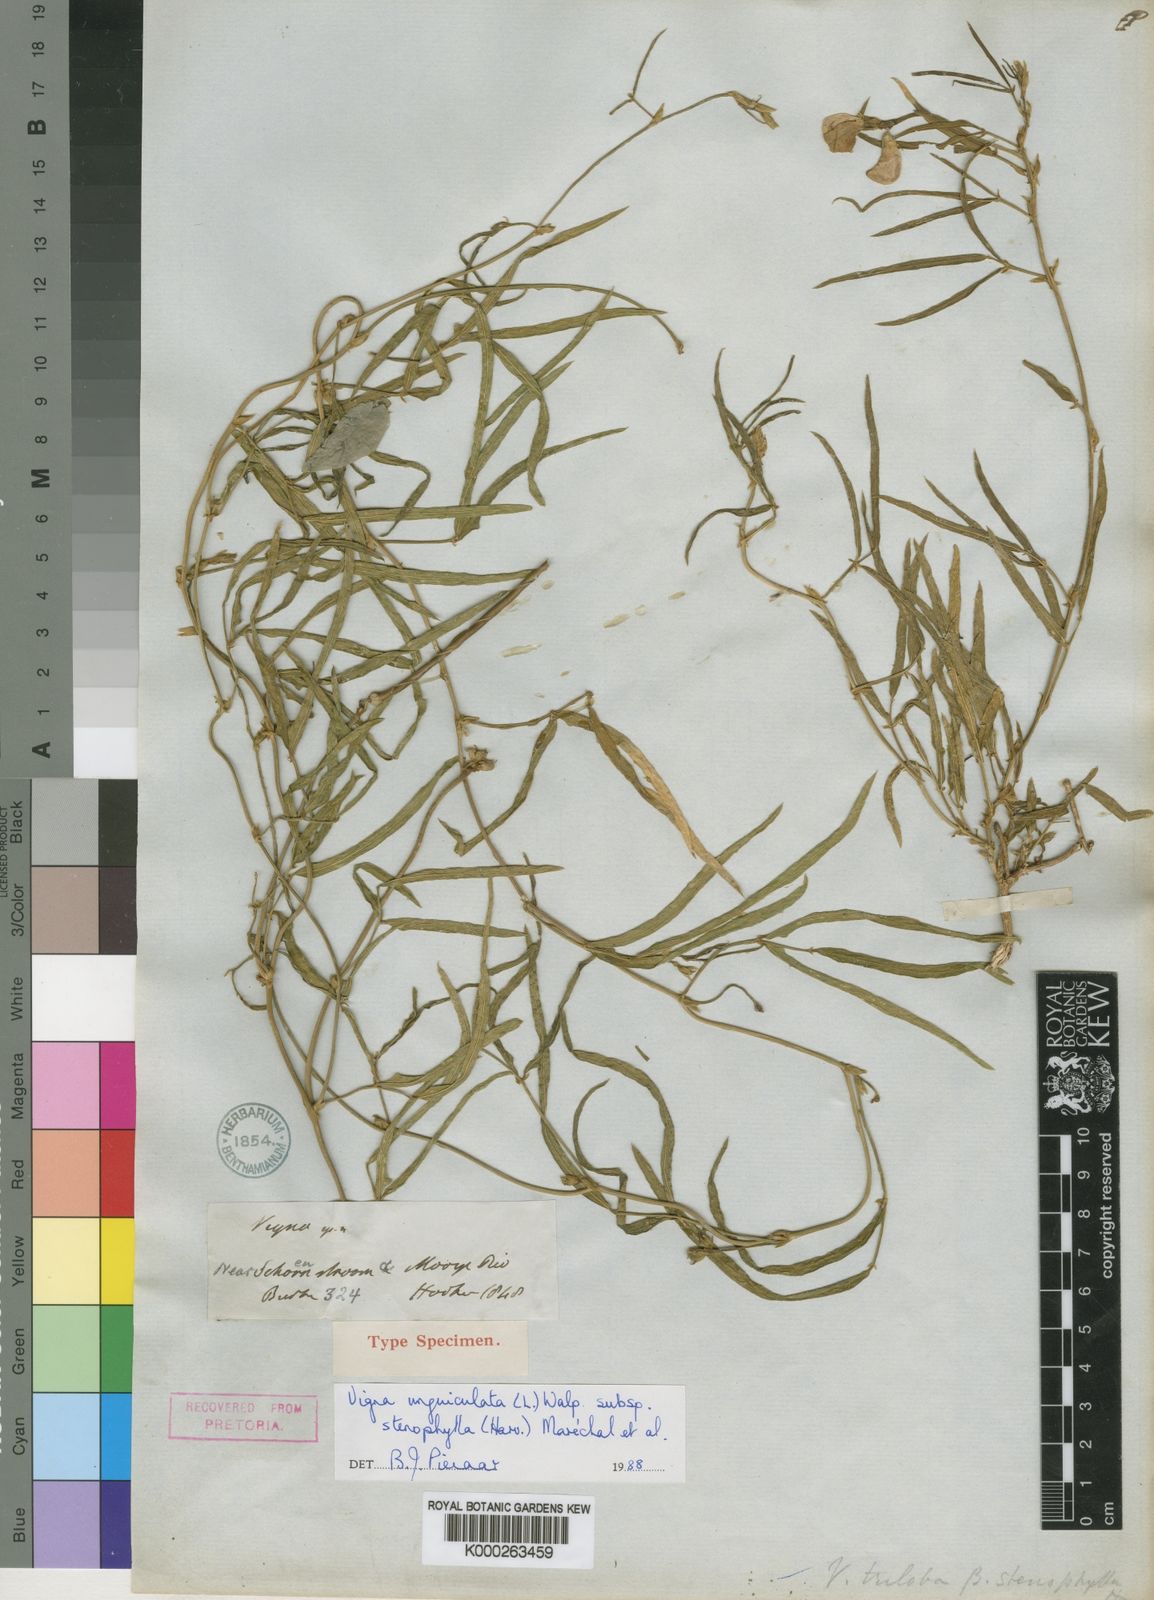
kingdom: Plantae
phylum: Tracheophyta
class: Magnoliopsida
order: Fabales
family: Fabaceae
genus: Vigna
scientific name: Vigna unguiculata
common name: Cowpea
